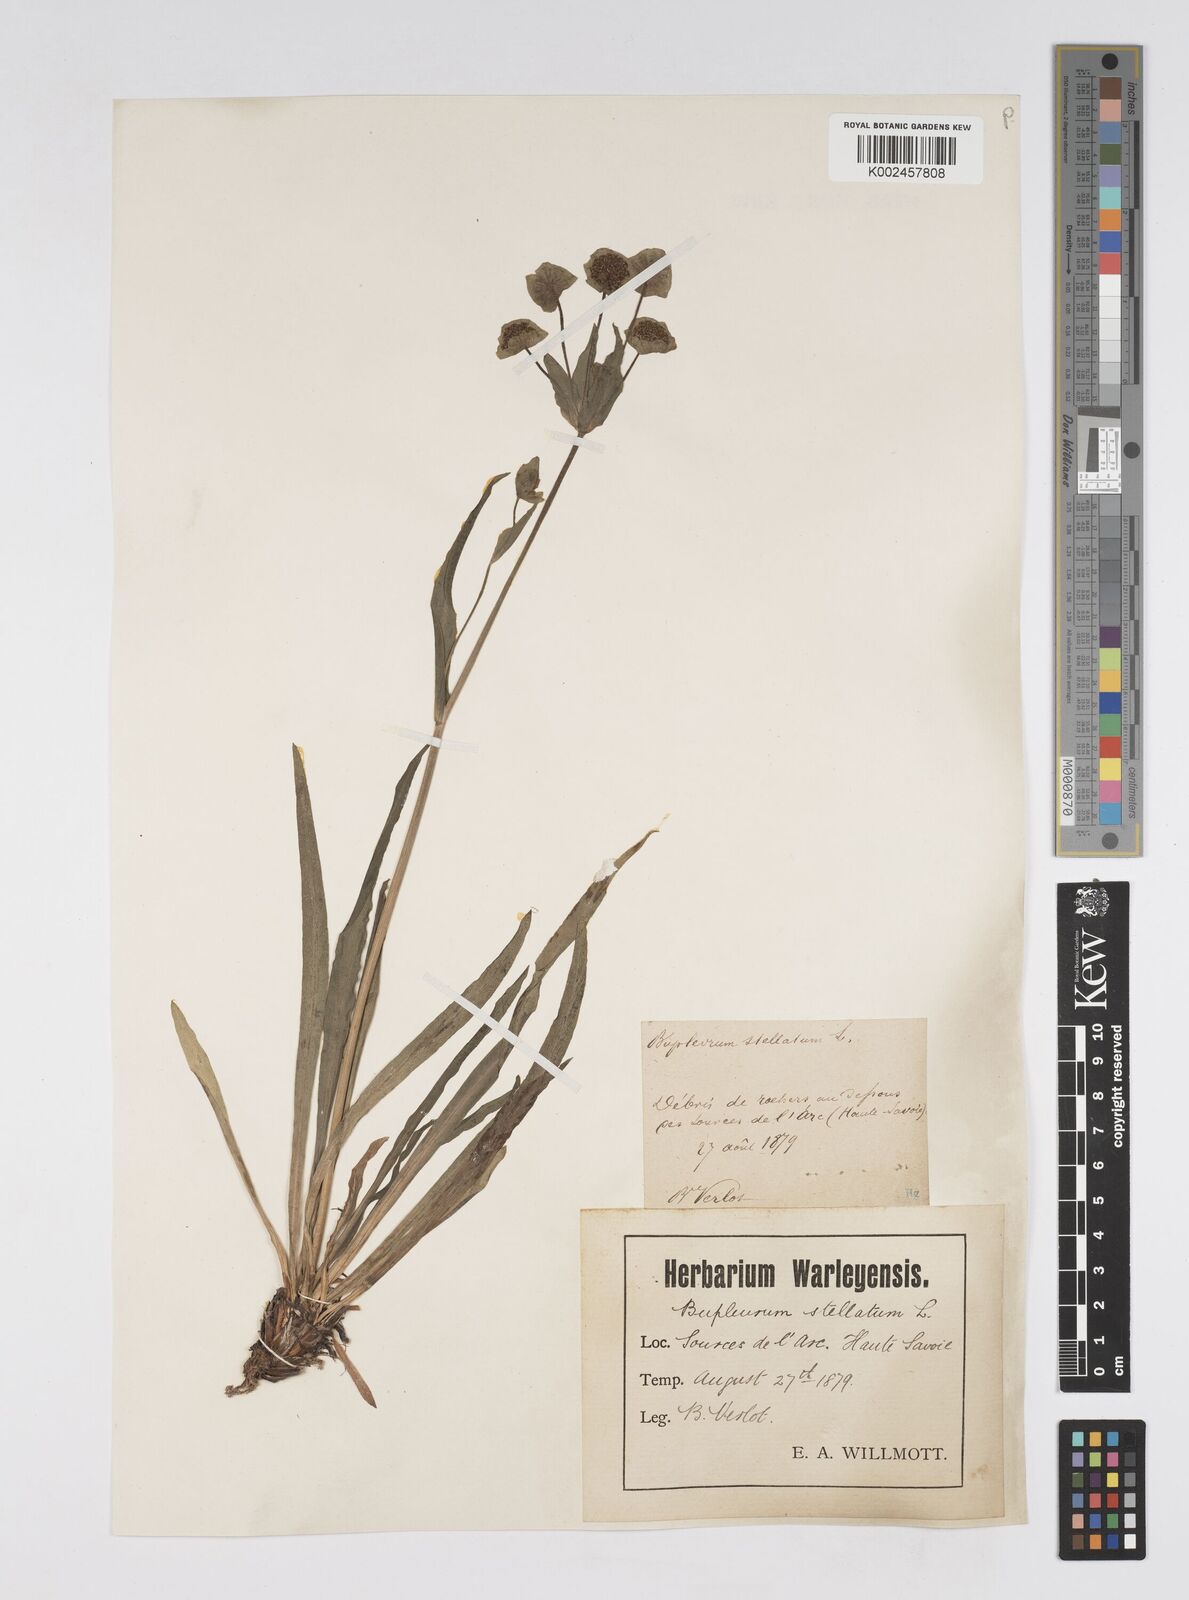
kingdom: Plantae
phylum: Tracheophyta
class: Magnoliopsida
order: Apiales
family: Apiaceae
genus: Bupleurum
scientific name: Bupleurum stellatum
